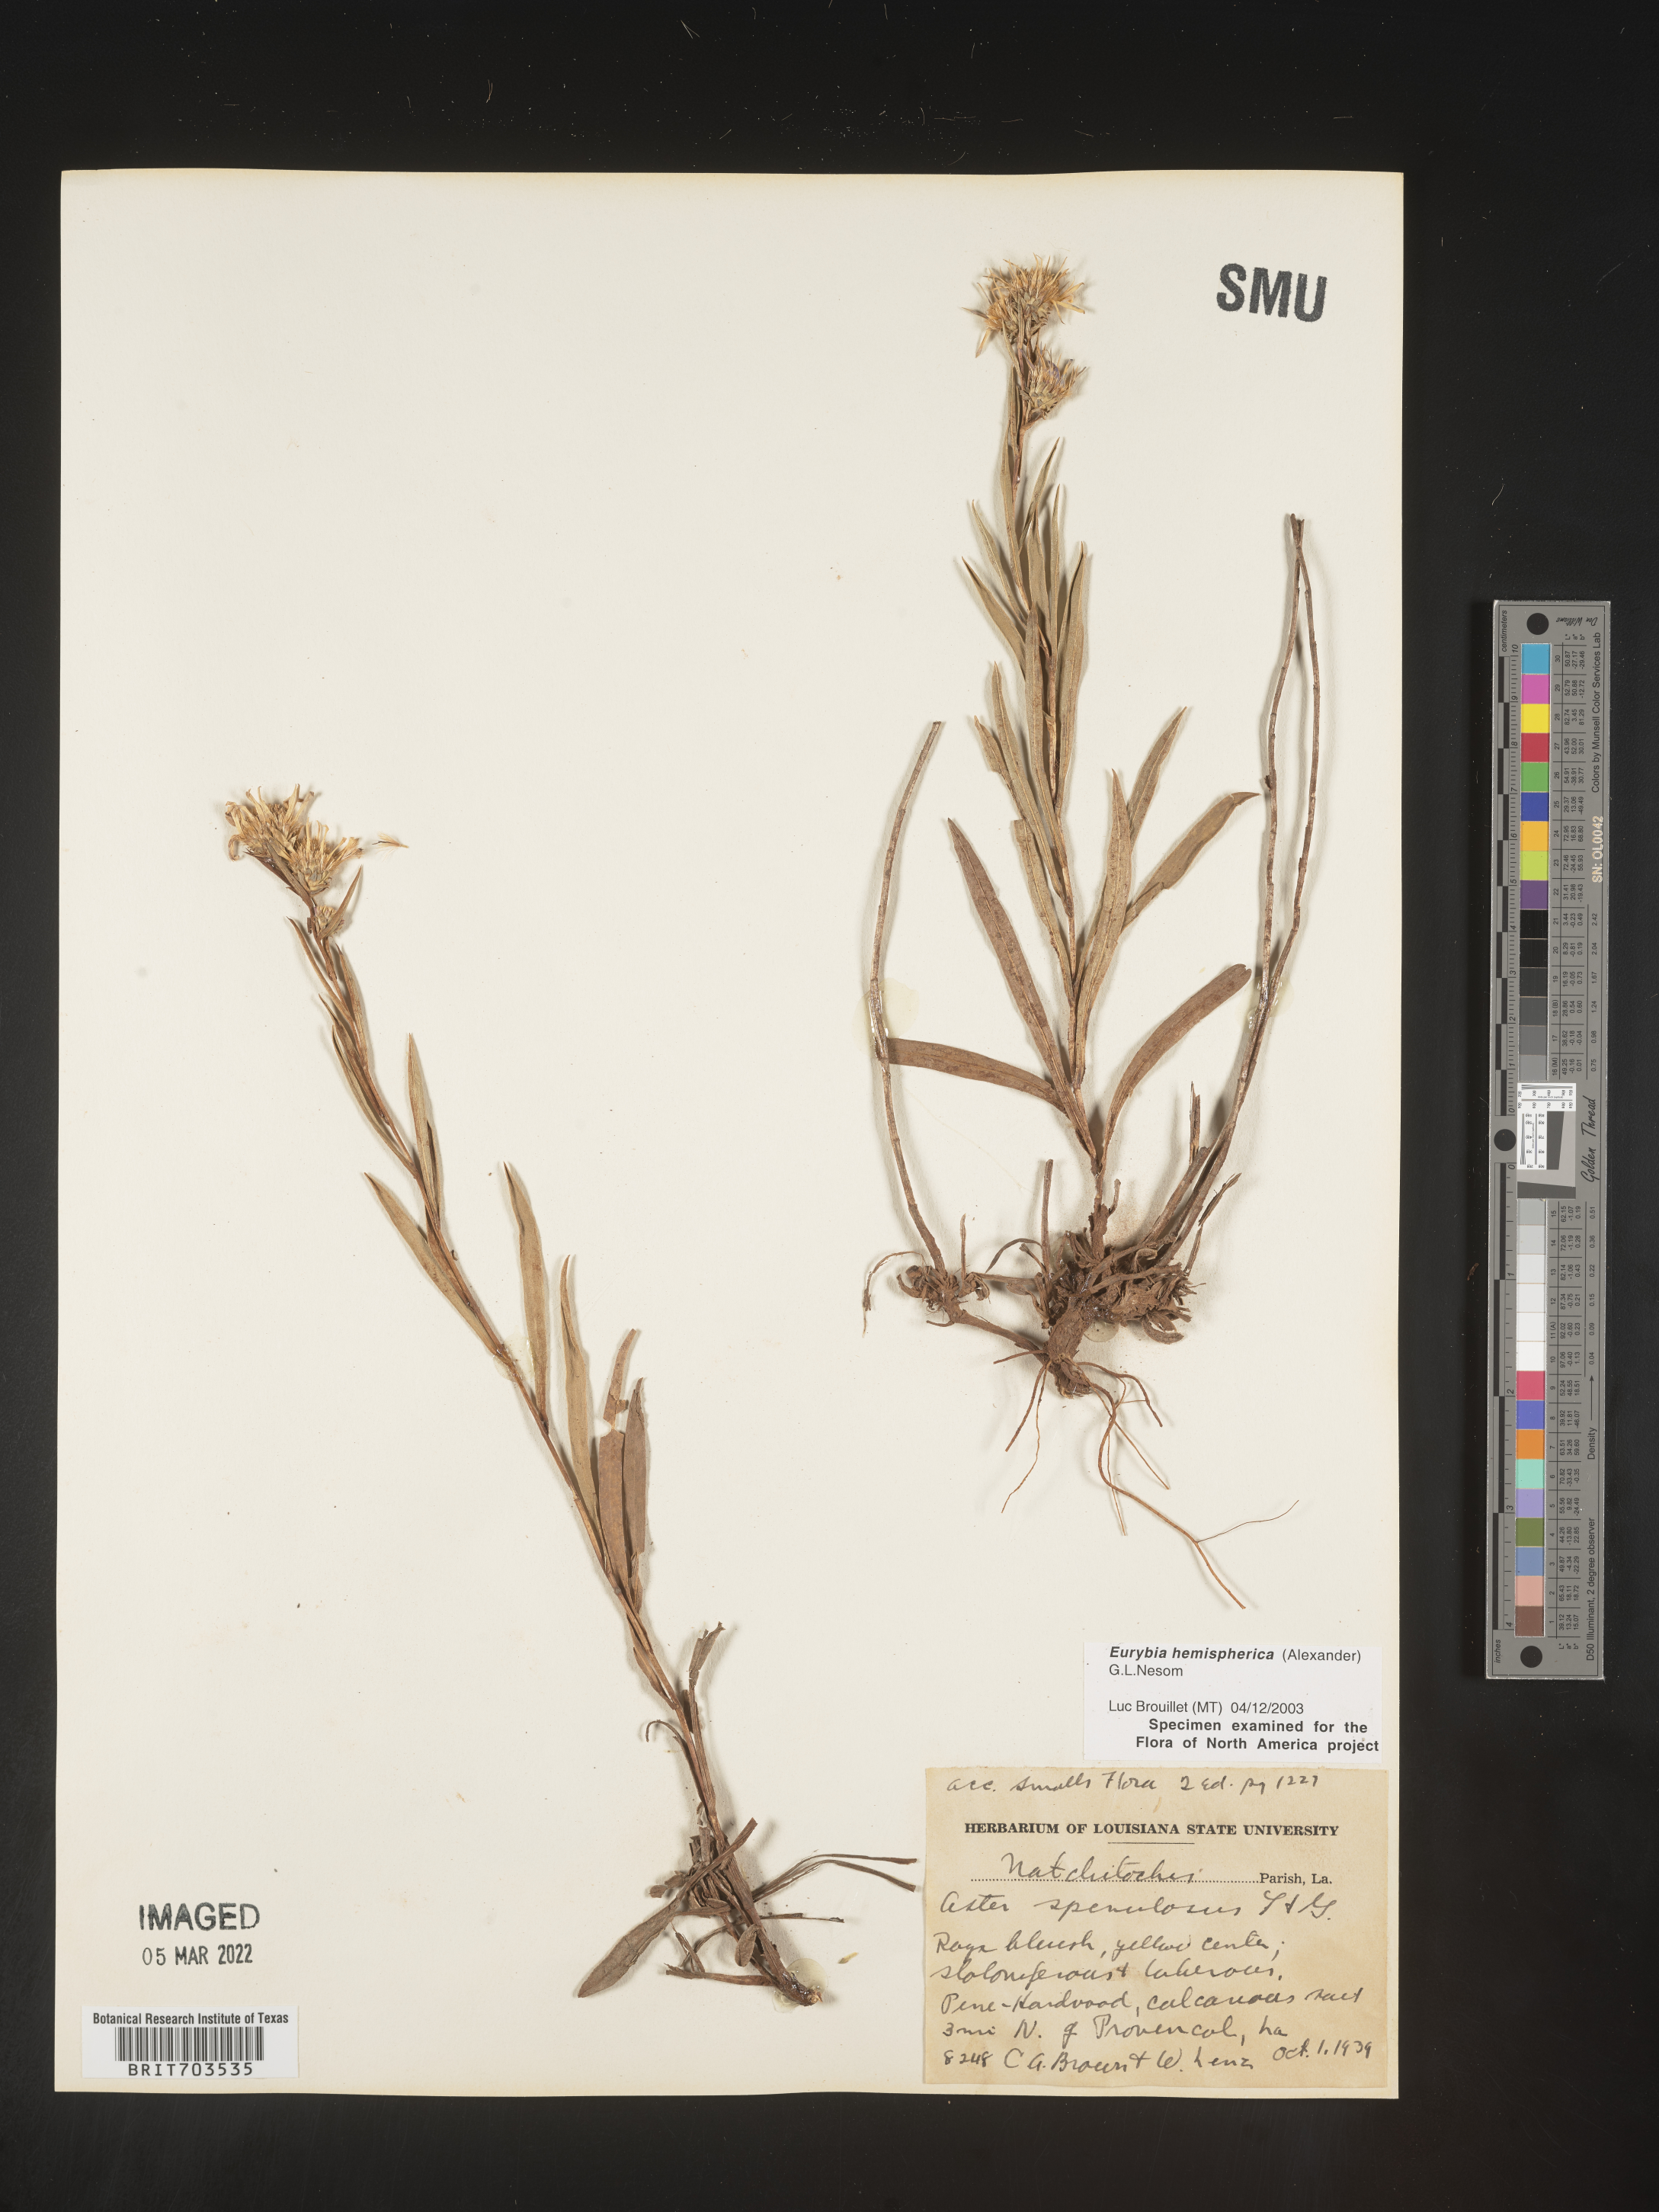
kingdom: Plantae
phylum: Tracheophyta
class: Magnoliopsida
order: Asterales
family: Asteraceae
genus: Eurybia
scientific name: Eurybia hemispherica
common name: Showy aster
